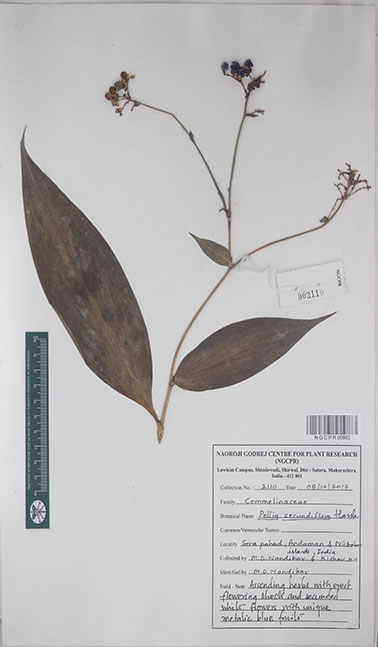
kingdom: Plantae
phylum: Tracheophyta
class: Liliopsida
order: Commelinales
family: Commelinaceae
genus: Pollia
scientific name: Pollia secundiflora
